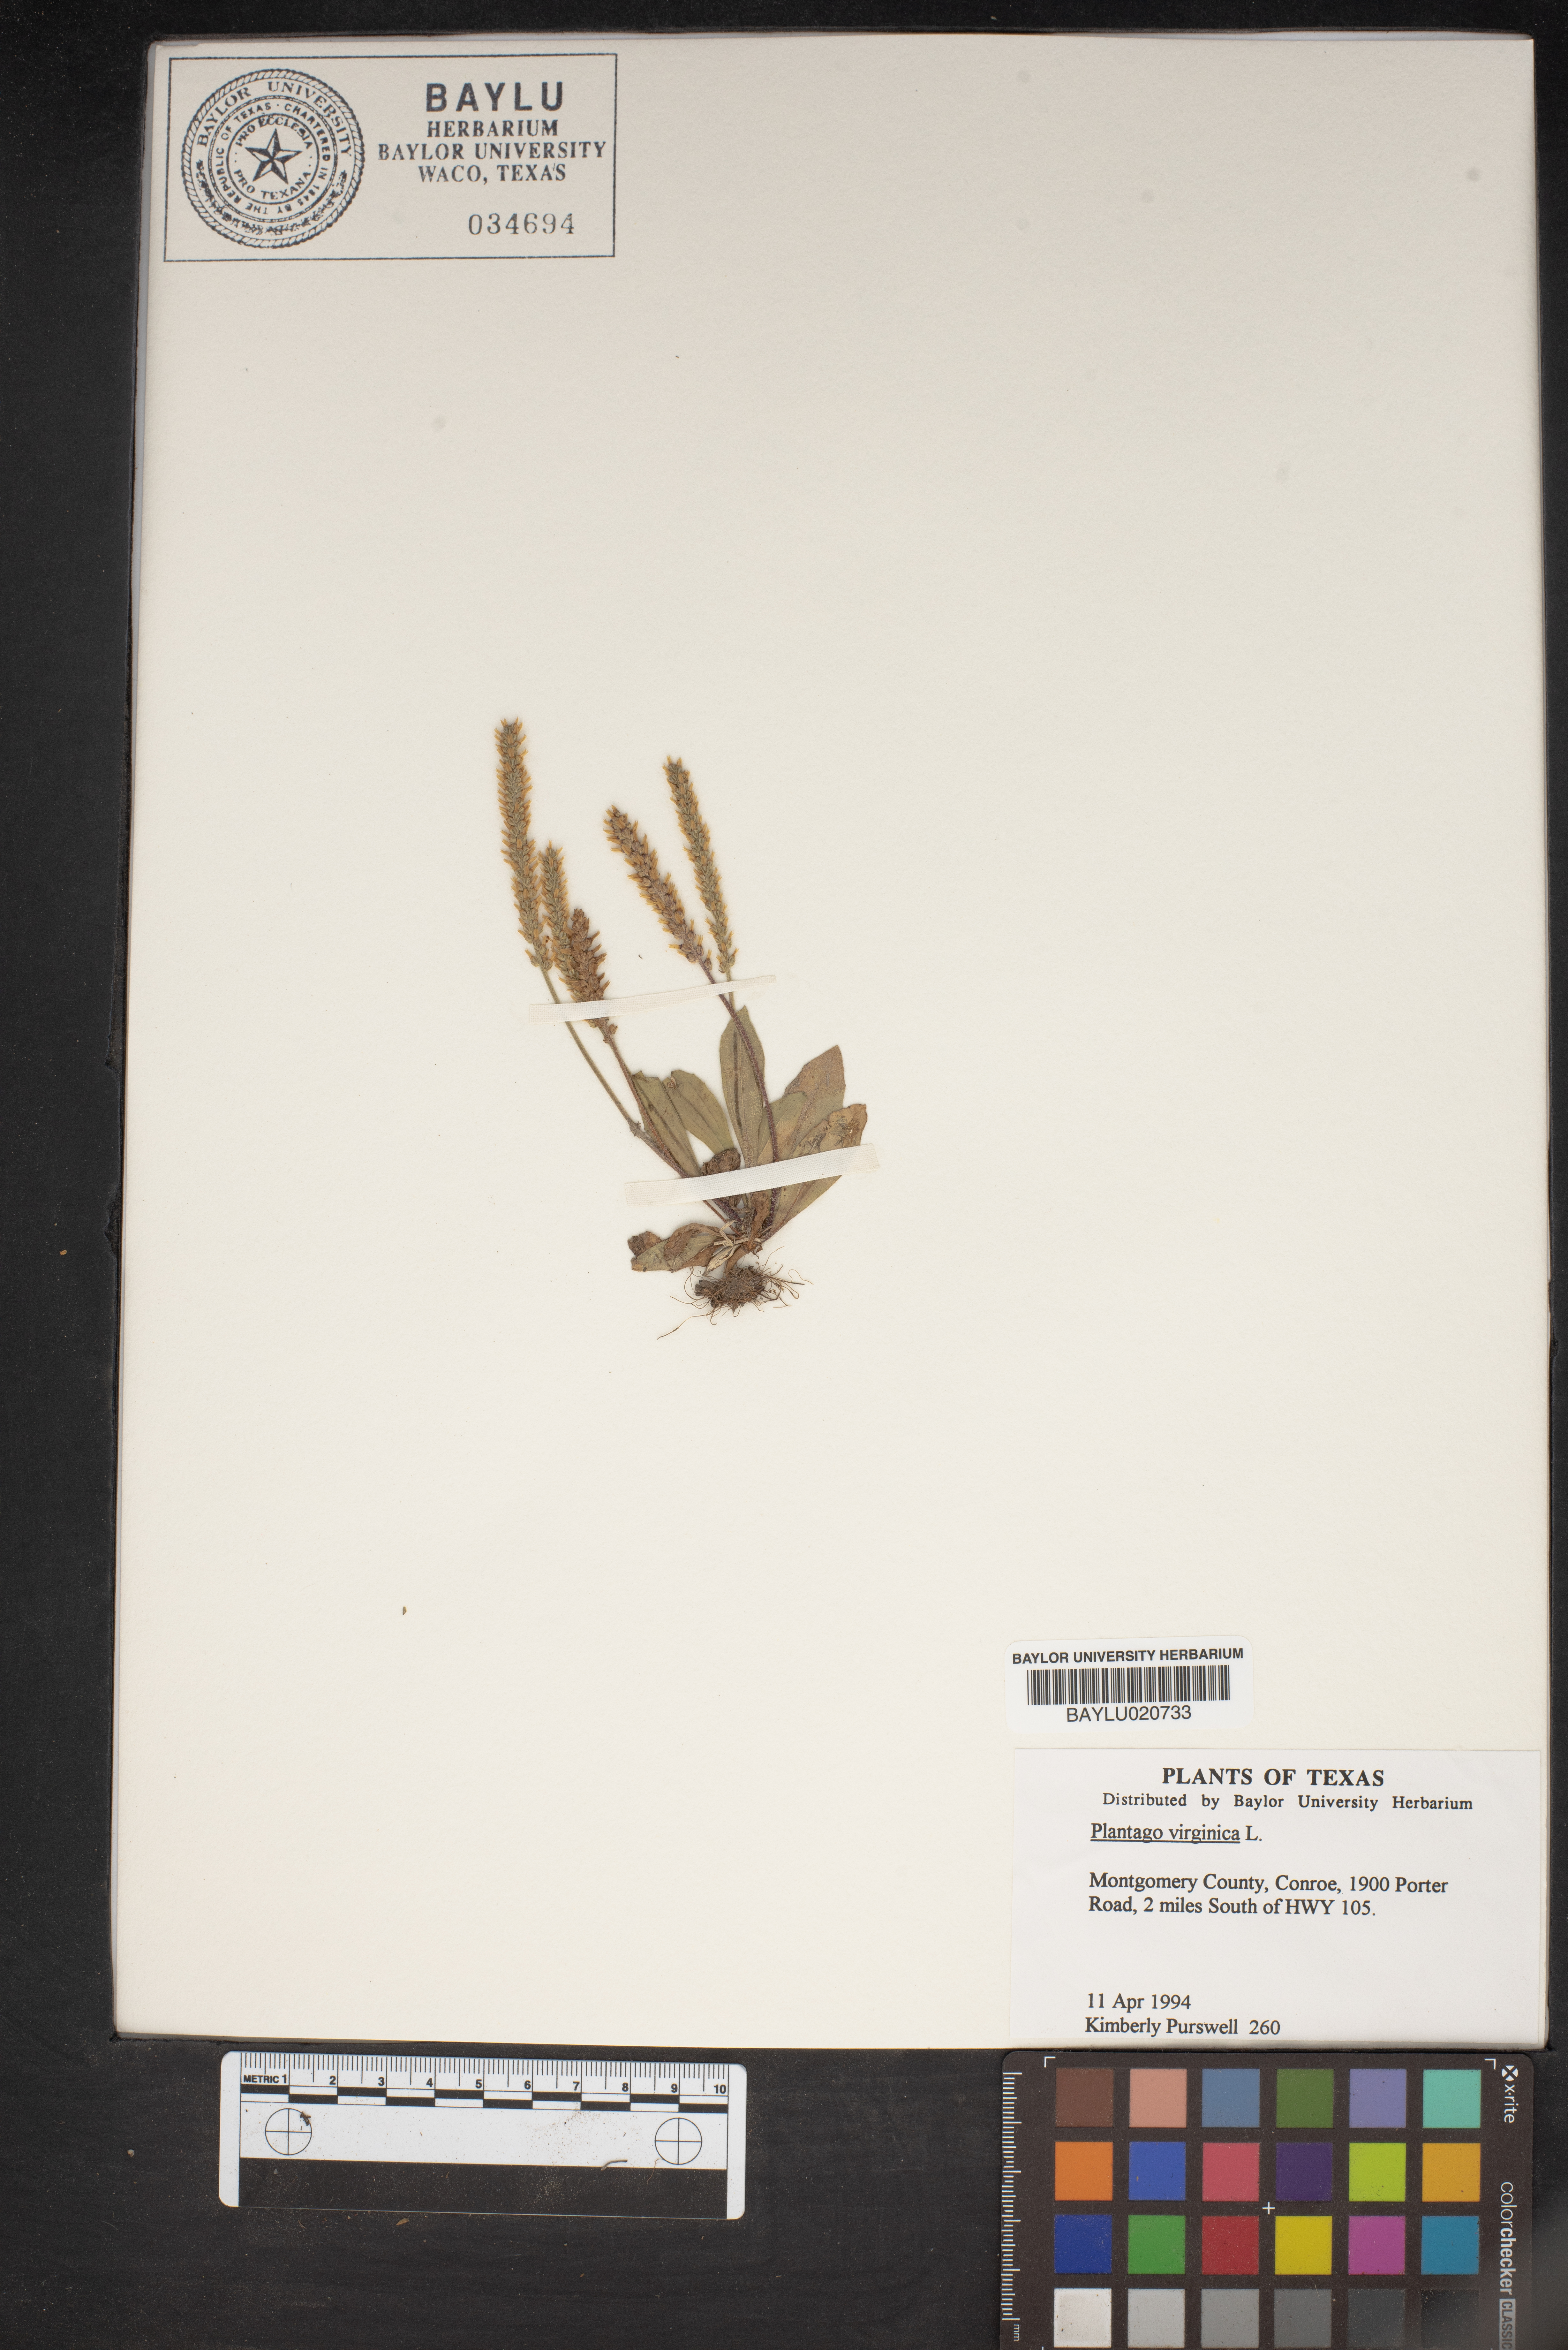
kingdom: Plantae
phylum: Tracheophyta
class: Magnoliopsida
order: Lamiales
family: Plantaginaceae
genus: Plantago
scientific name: Plantago virginica
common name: Hoary plantain
